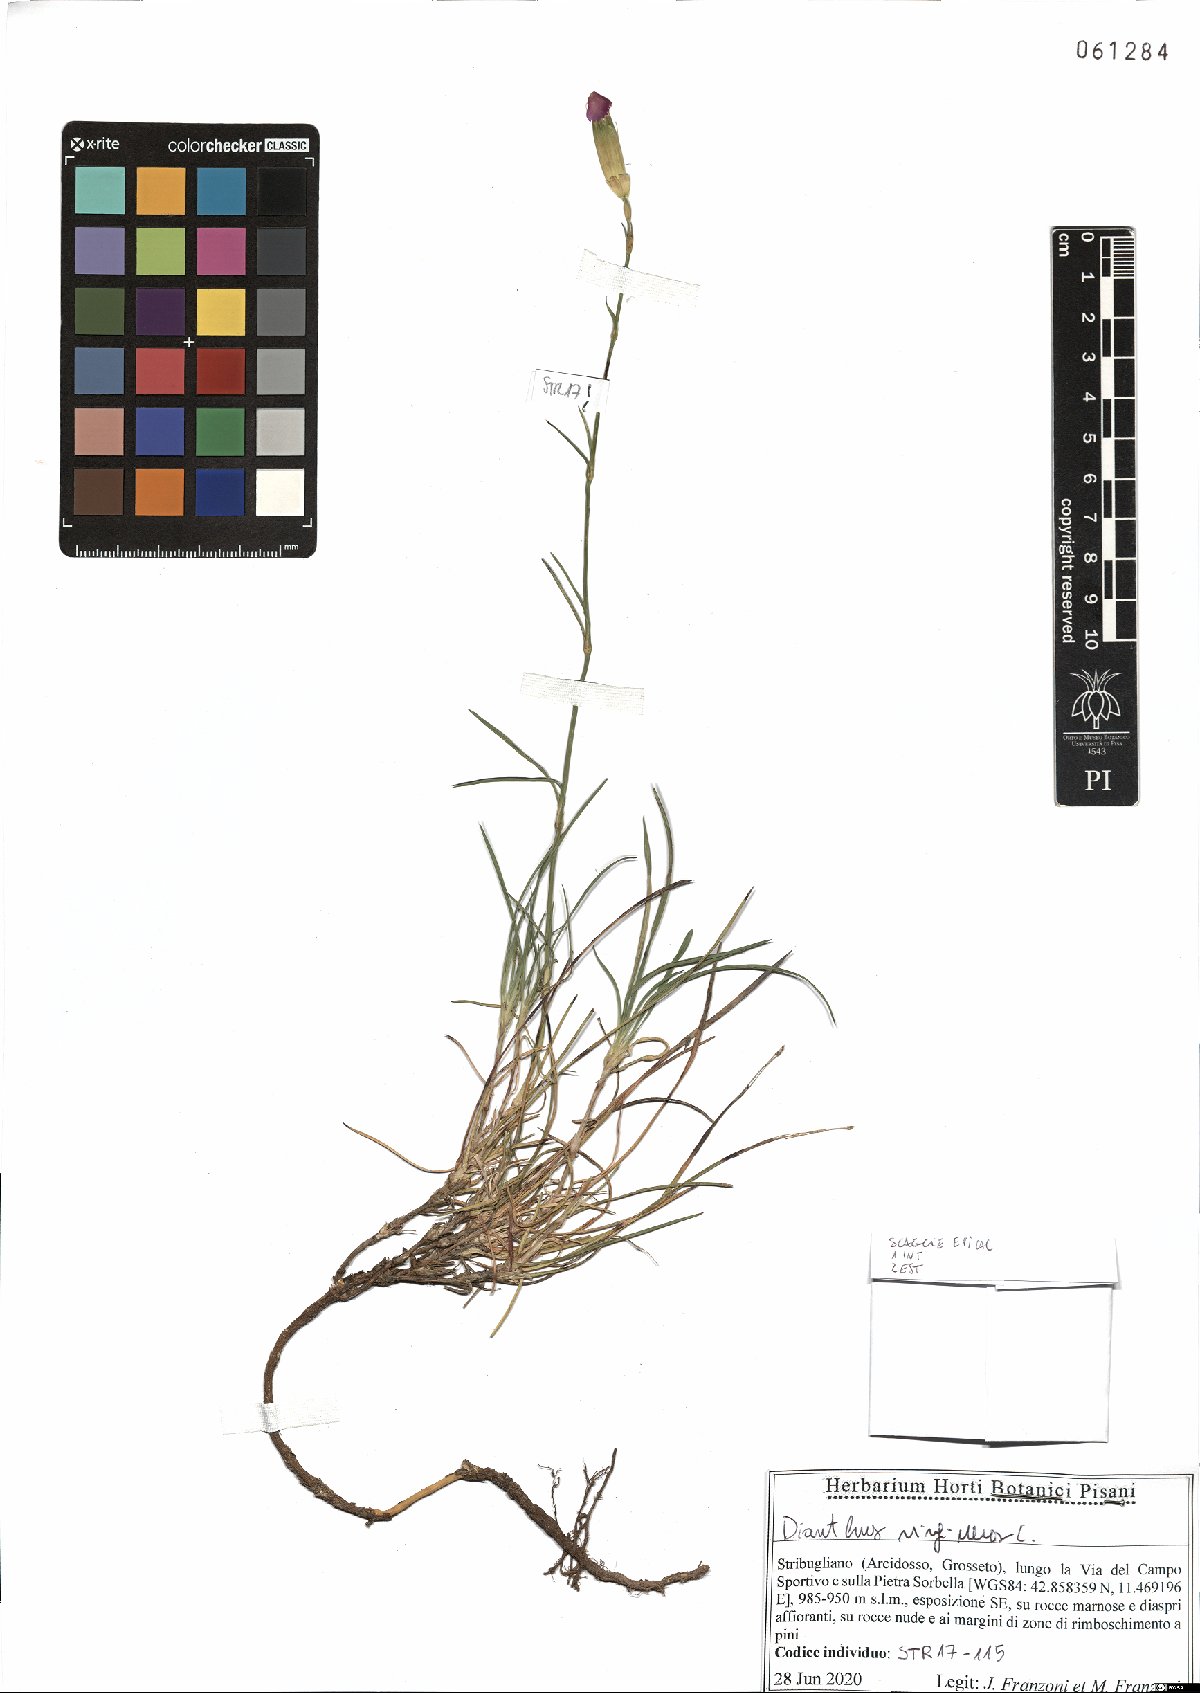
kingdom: Plantae
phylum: Tracheophyta
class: Magnoliopsida
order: Caryophyllales
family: Caryophyllaceae
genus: Dianthus
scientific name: Dianthus virgineus
